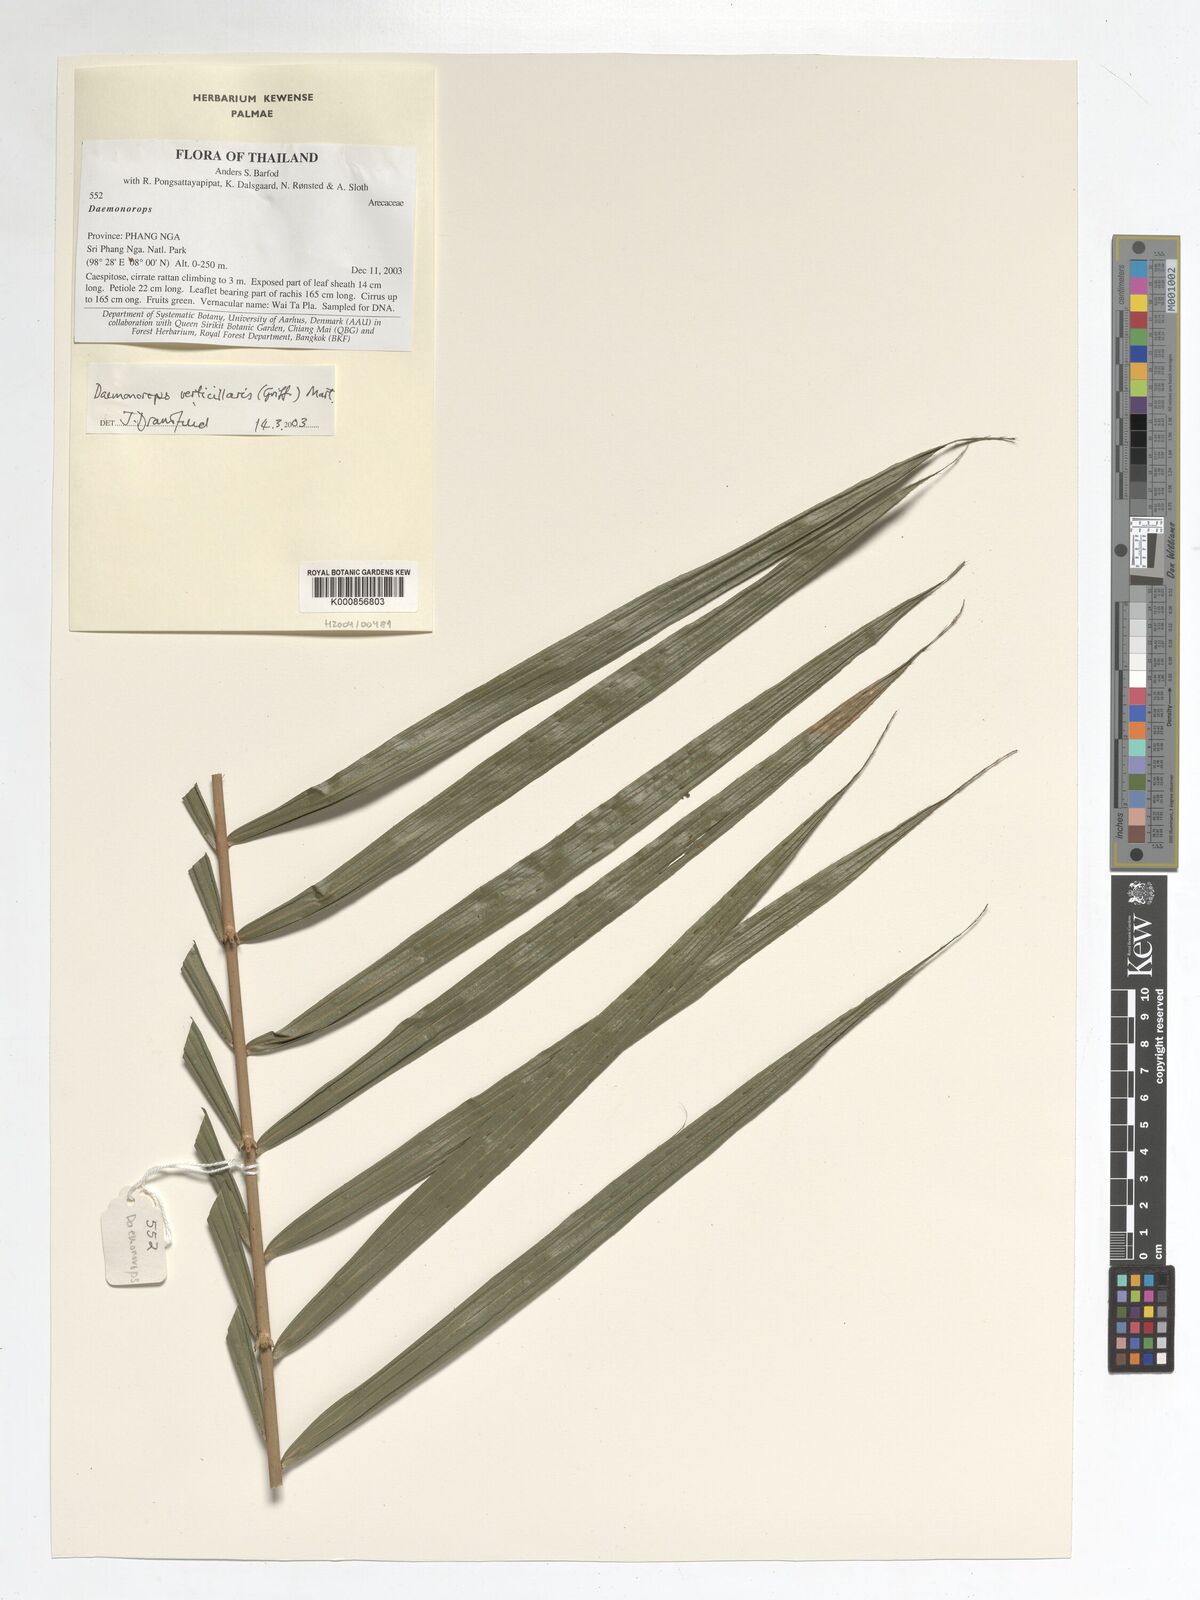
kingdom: Plantae
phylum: Tracheophyta
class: Liliopsida
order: Arecales
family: Arecaceae
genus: Calamus
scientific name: Calamus verticillaris
